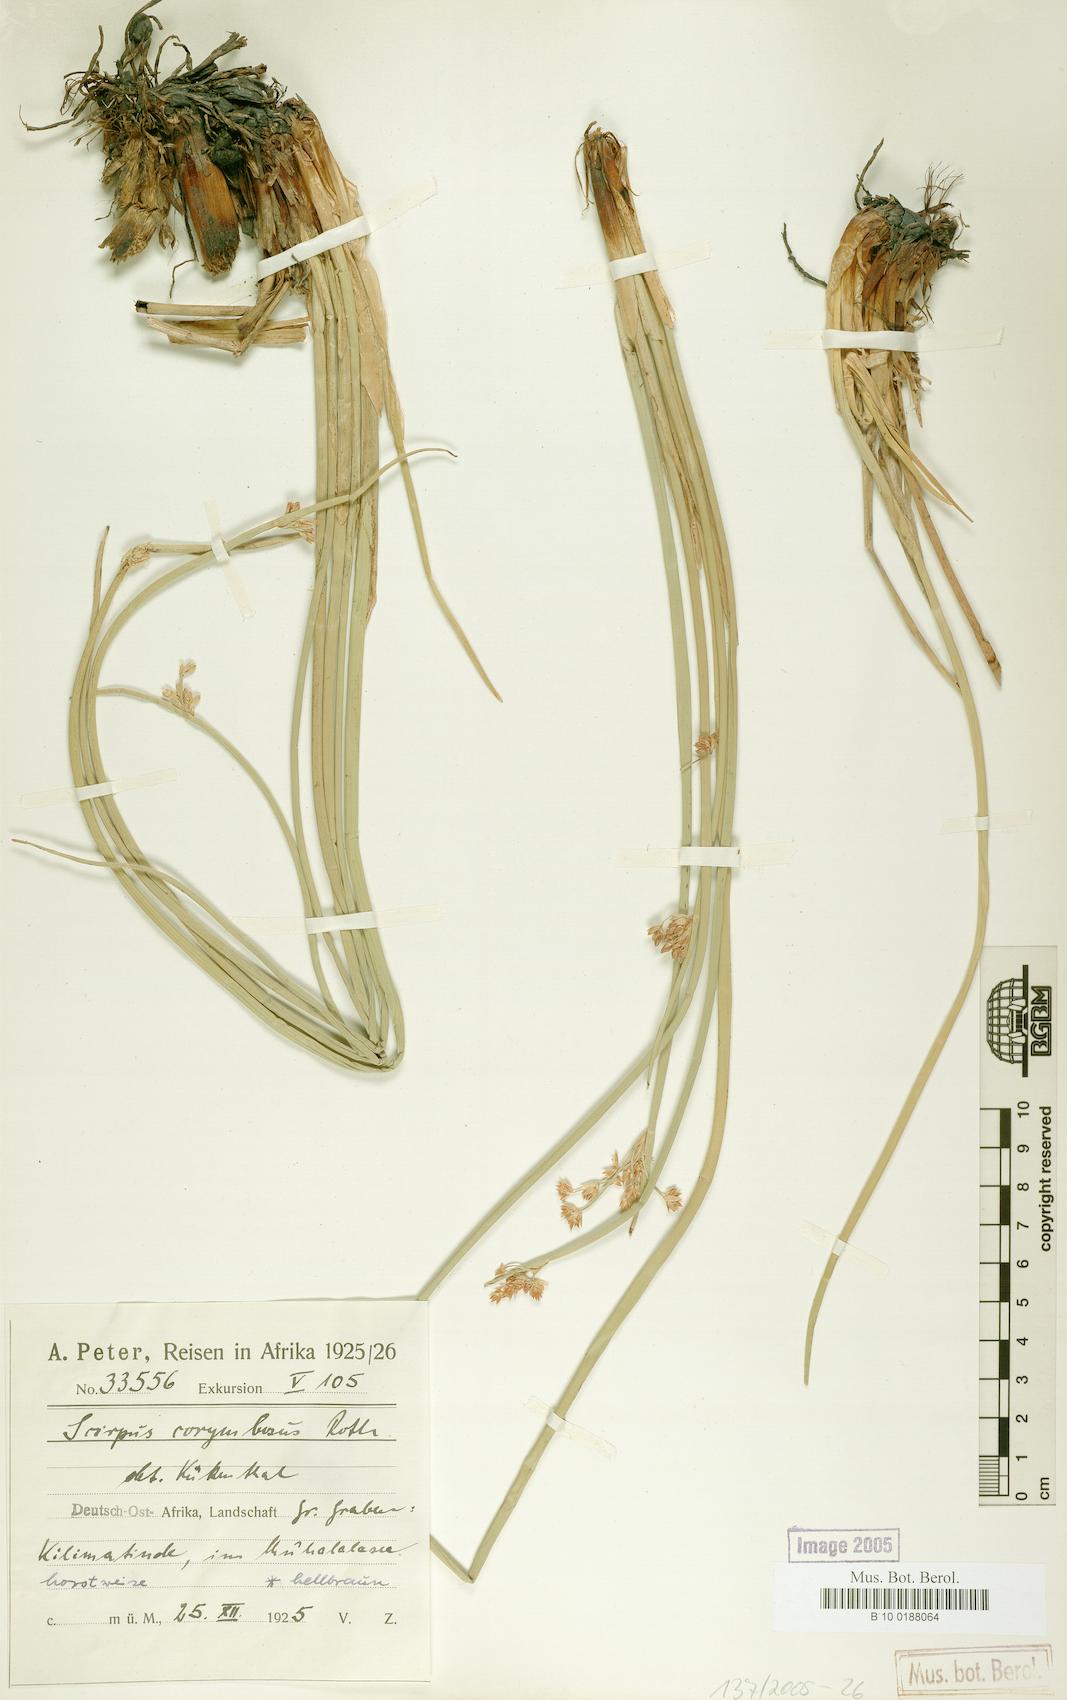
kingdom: Plantae
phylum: Tracheophyta
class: Liliopsida
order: Poales
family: Cyperaceae
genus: Schoenoplectiella
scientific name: Schoenoplectiella corymbosa
